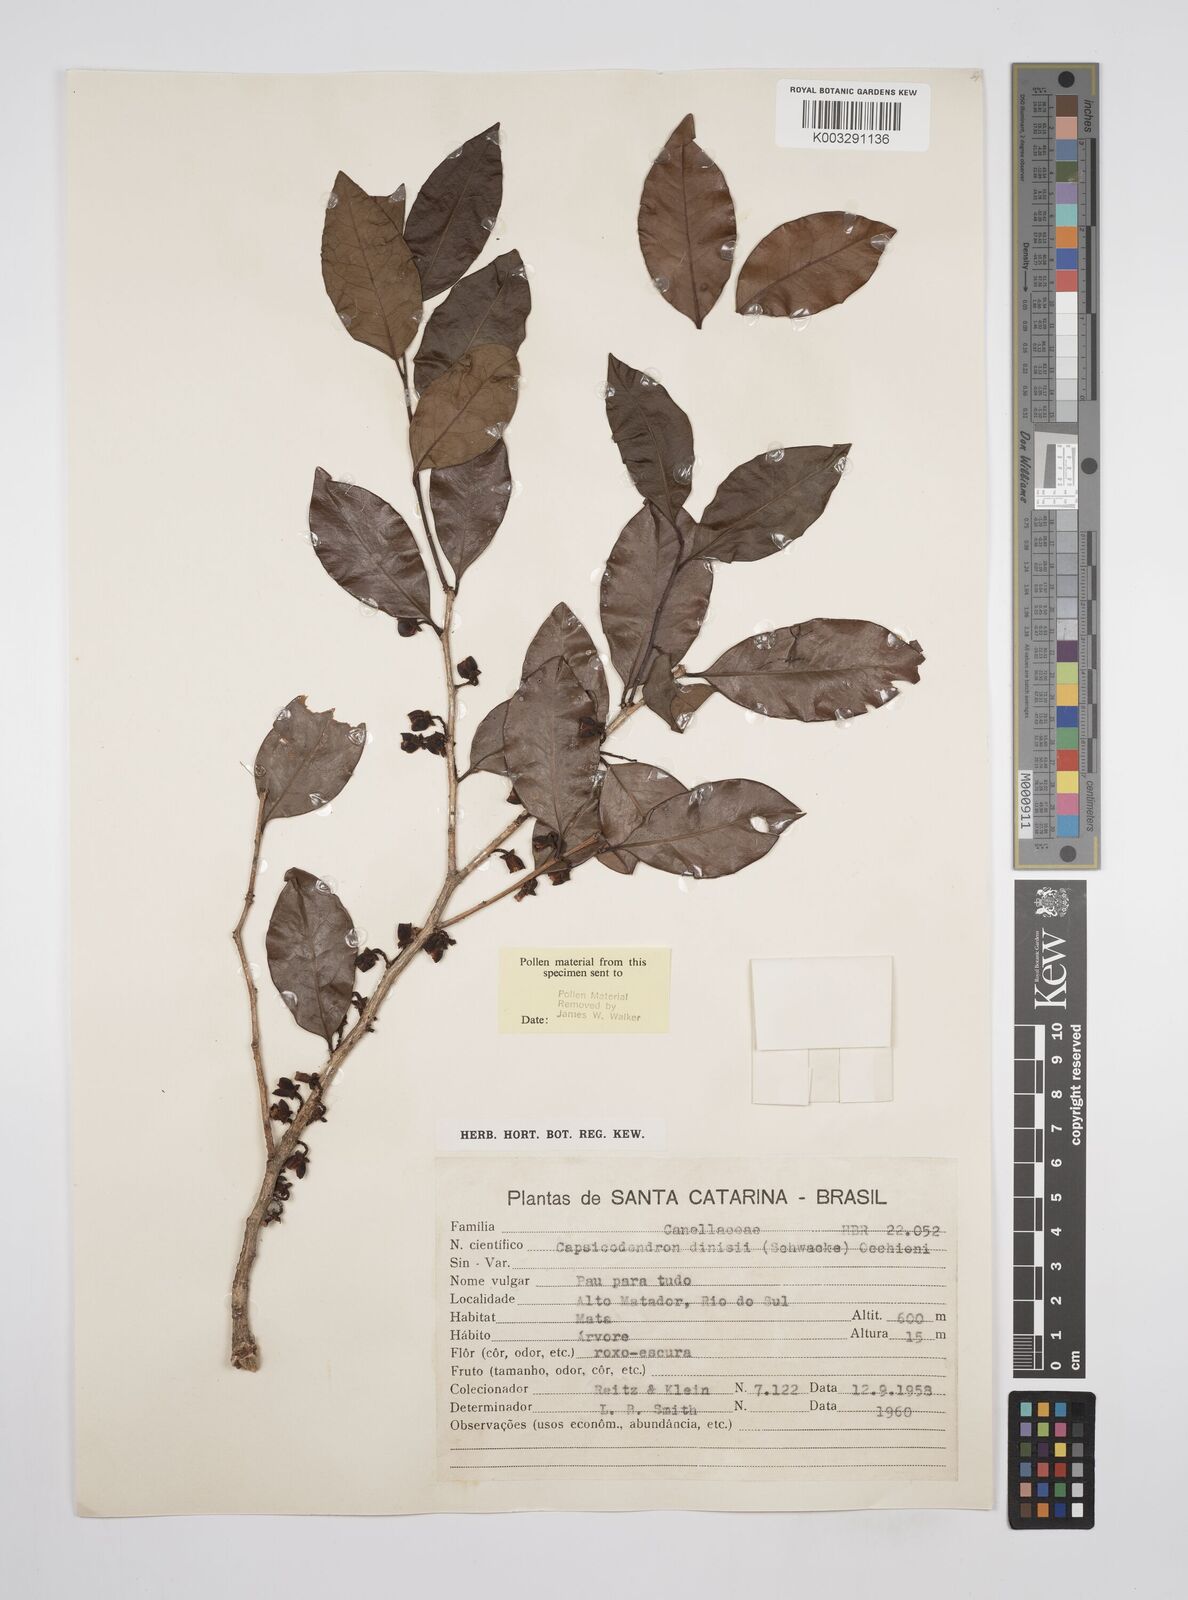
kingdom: Plantae
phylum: Tracheophyta
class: Magnoliopsida
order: Canellales
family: Canellaceae
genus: Cinnamodendron
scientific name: Cinnamodendron dinisii
